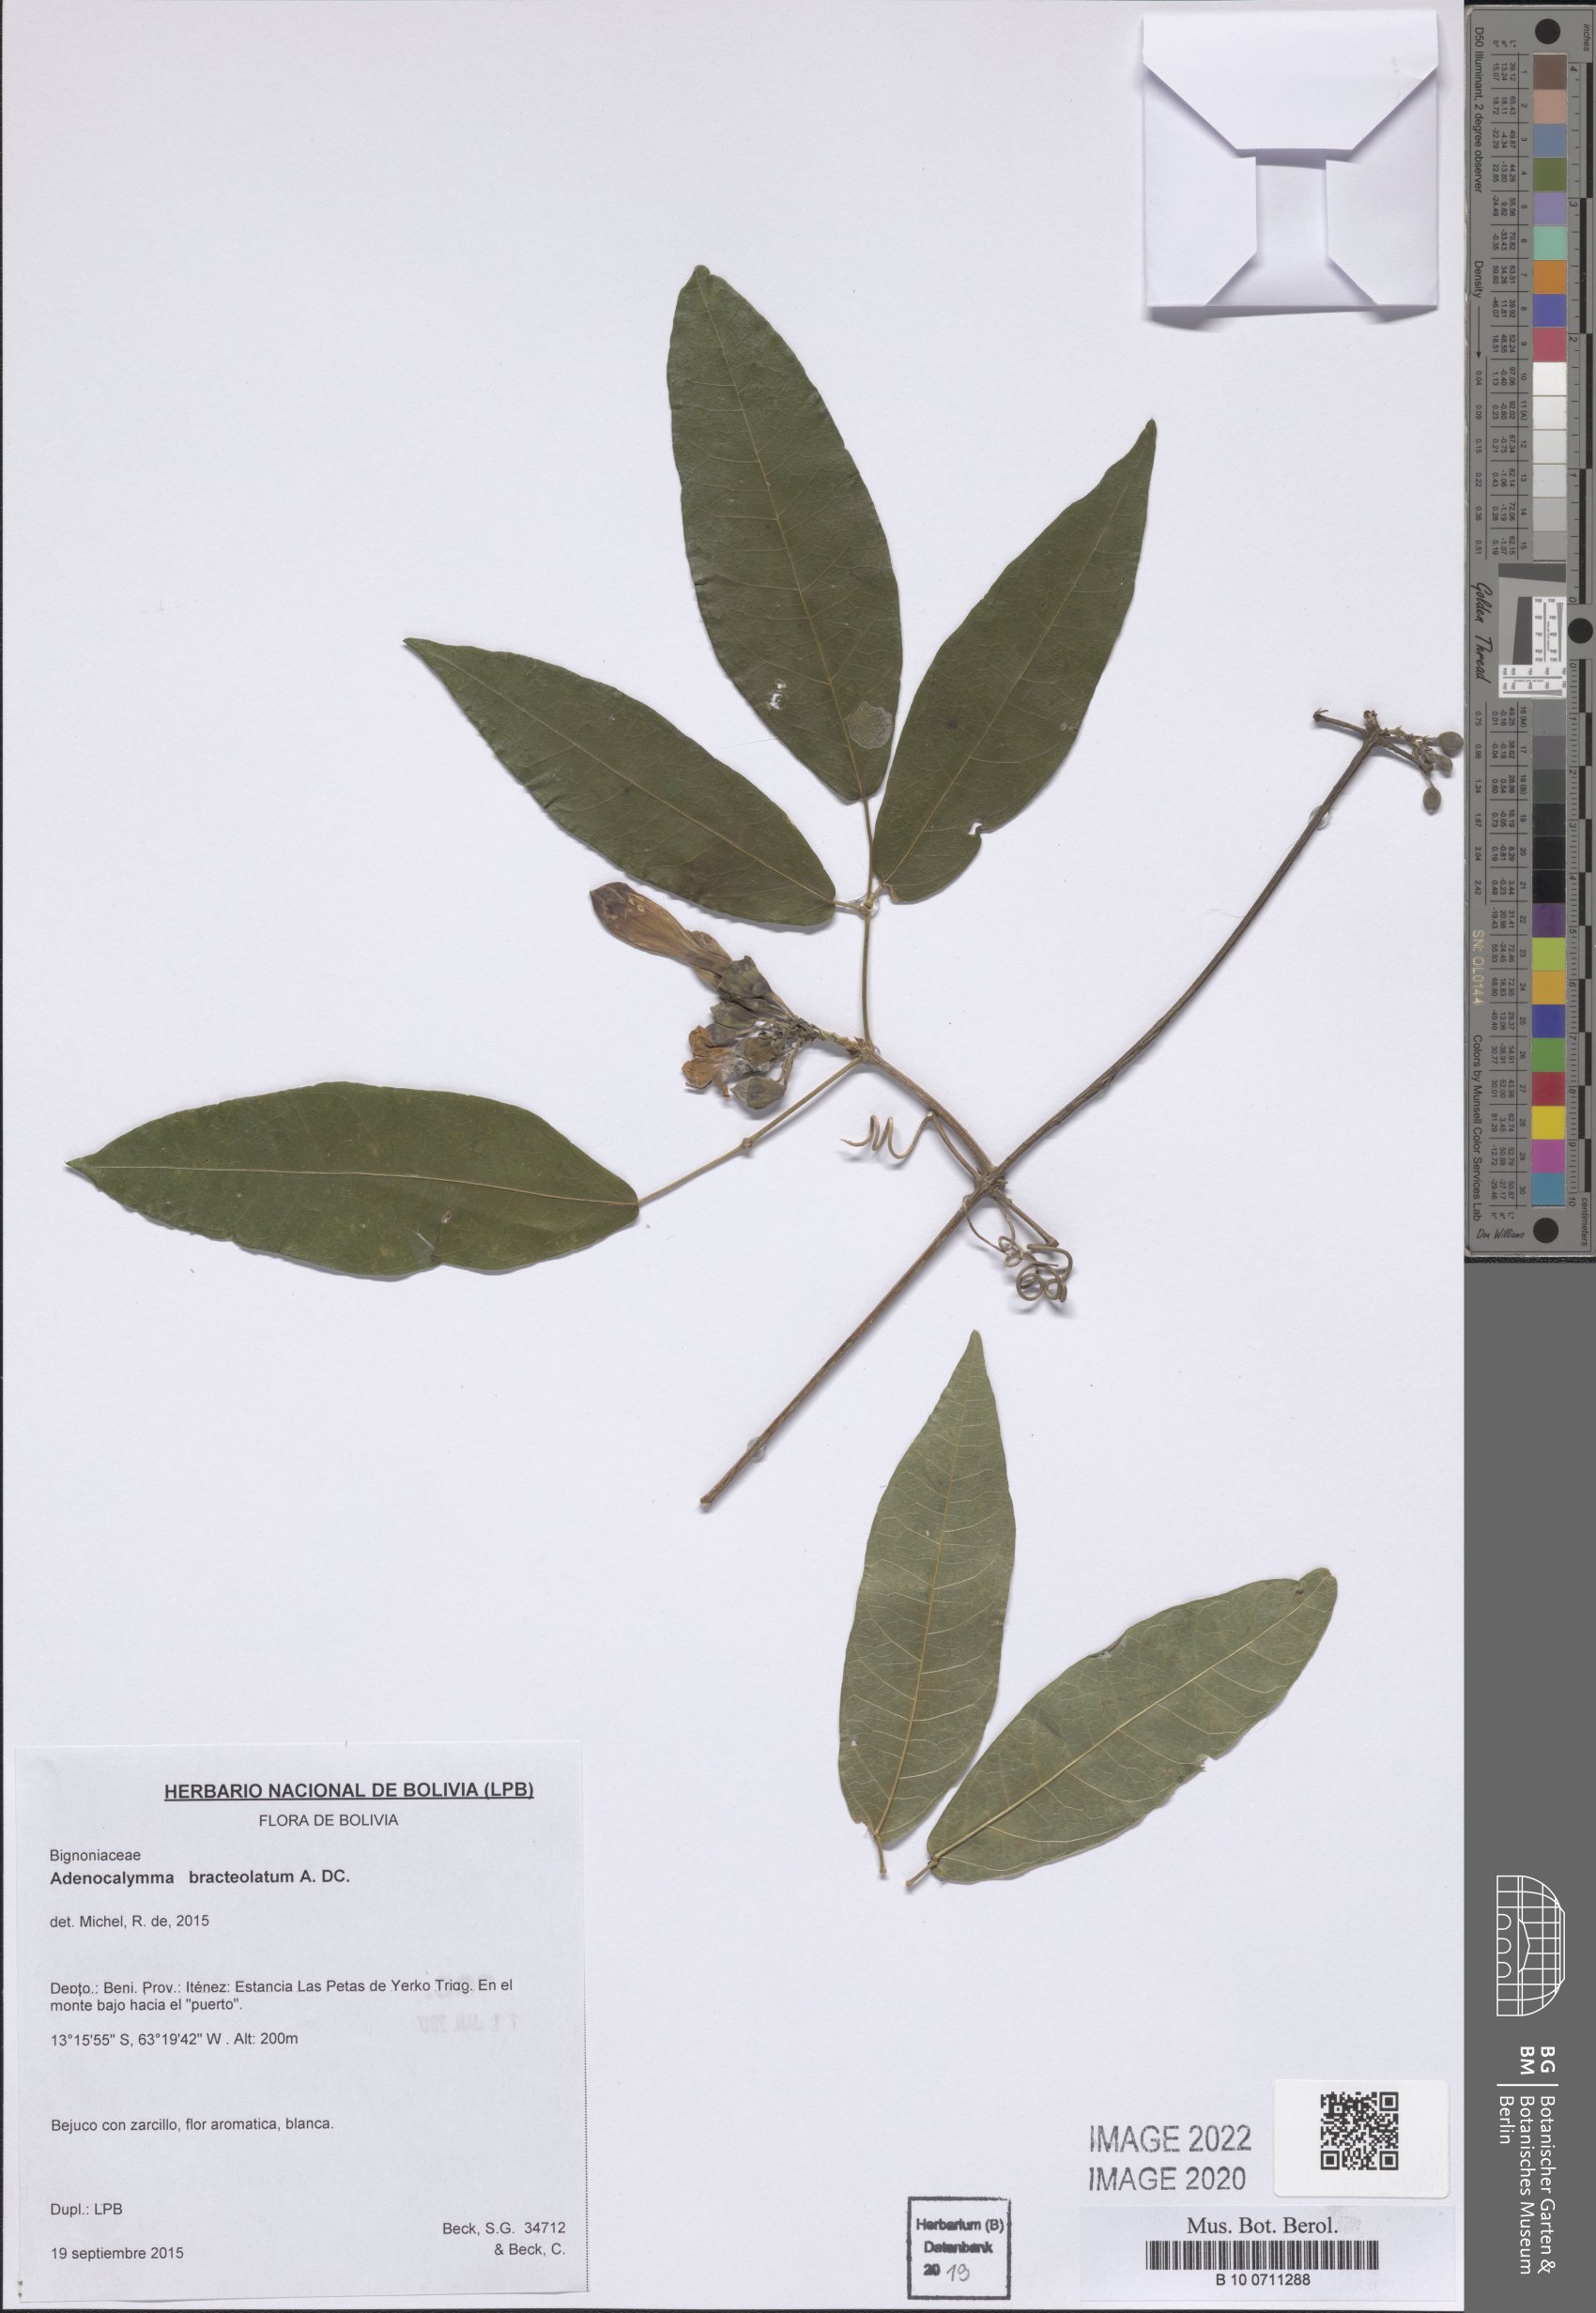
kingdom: Plantae
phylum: Tracheophyta
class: Magnoliopsida
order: Lamiales
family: Bignoniaceae
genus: Adenocalymma
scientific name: Adenocalymma bracteolatum
